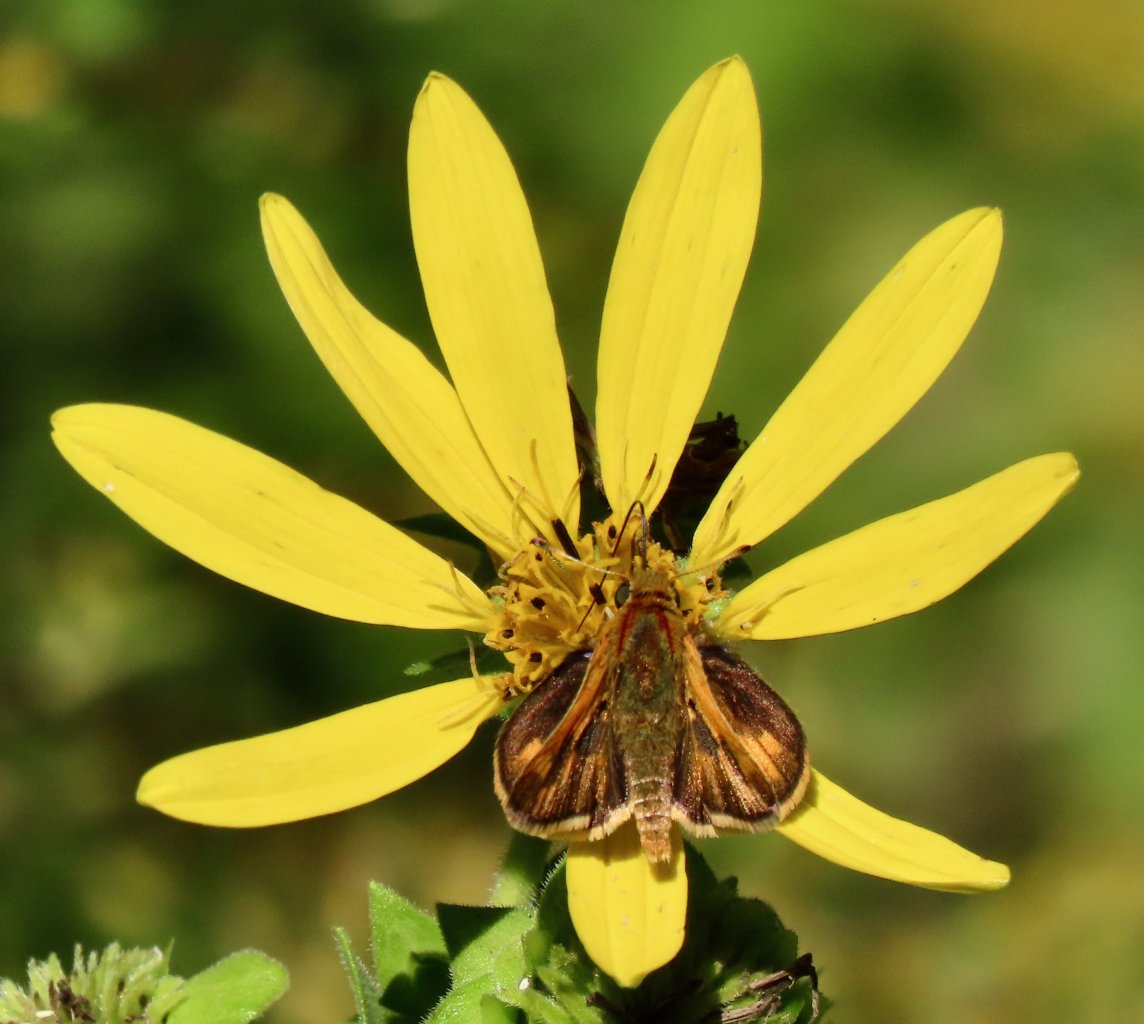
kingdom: Animalia
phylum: Arthropoda
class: Insecta
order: Lepidoptera
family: Hesperiidae
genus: Polites
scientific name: Polites coras
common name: Peck's Skipper
